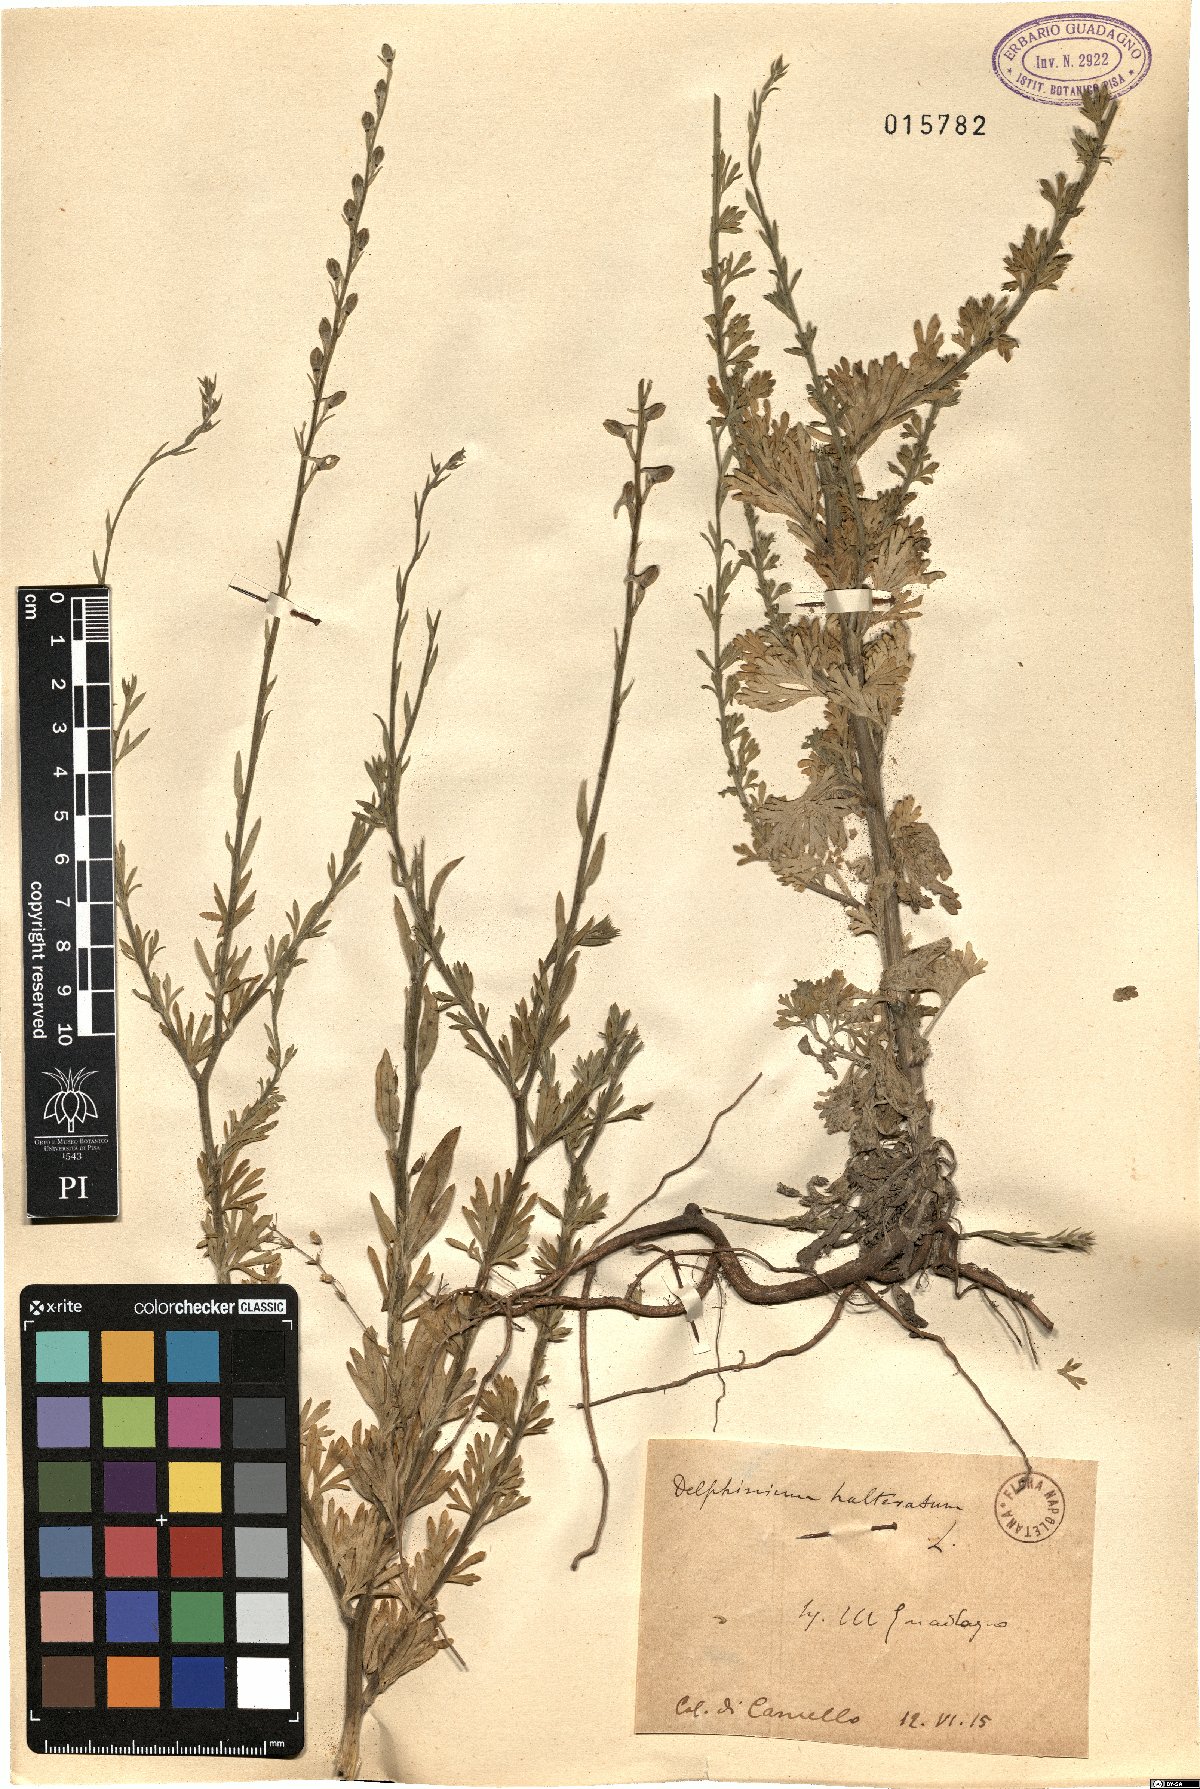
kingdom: Plantae
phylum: Tracheophyta
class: Magnoliopsida
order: Ranunculales
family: Ranunculaceae
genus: Delphinium
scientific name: Delphinium halteratum
